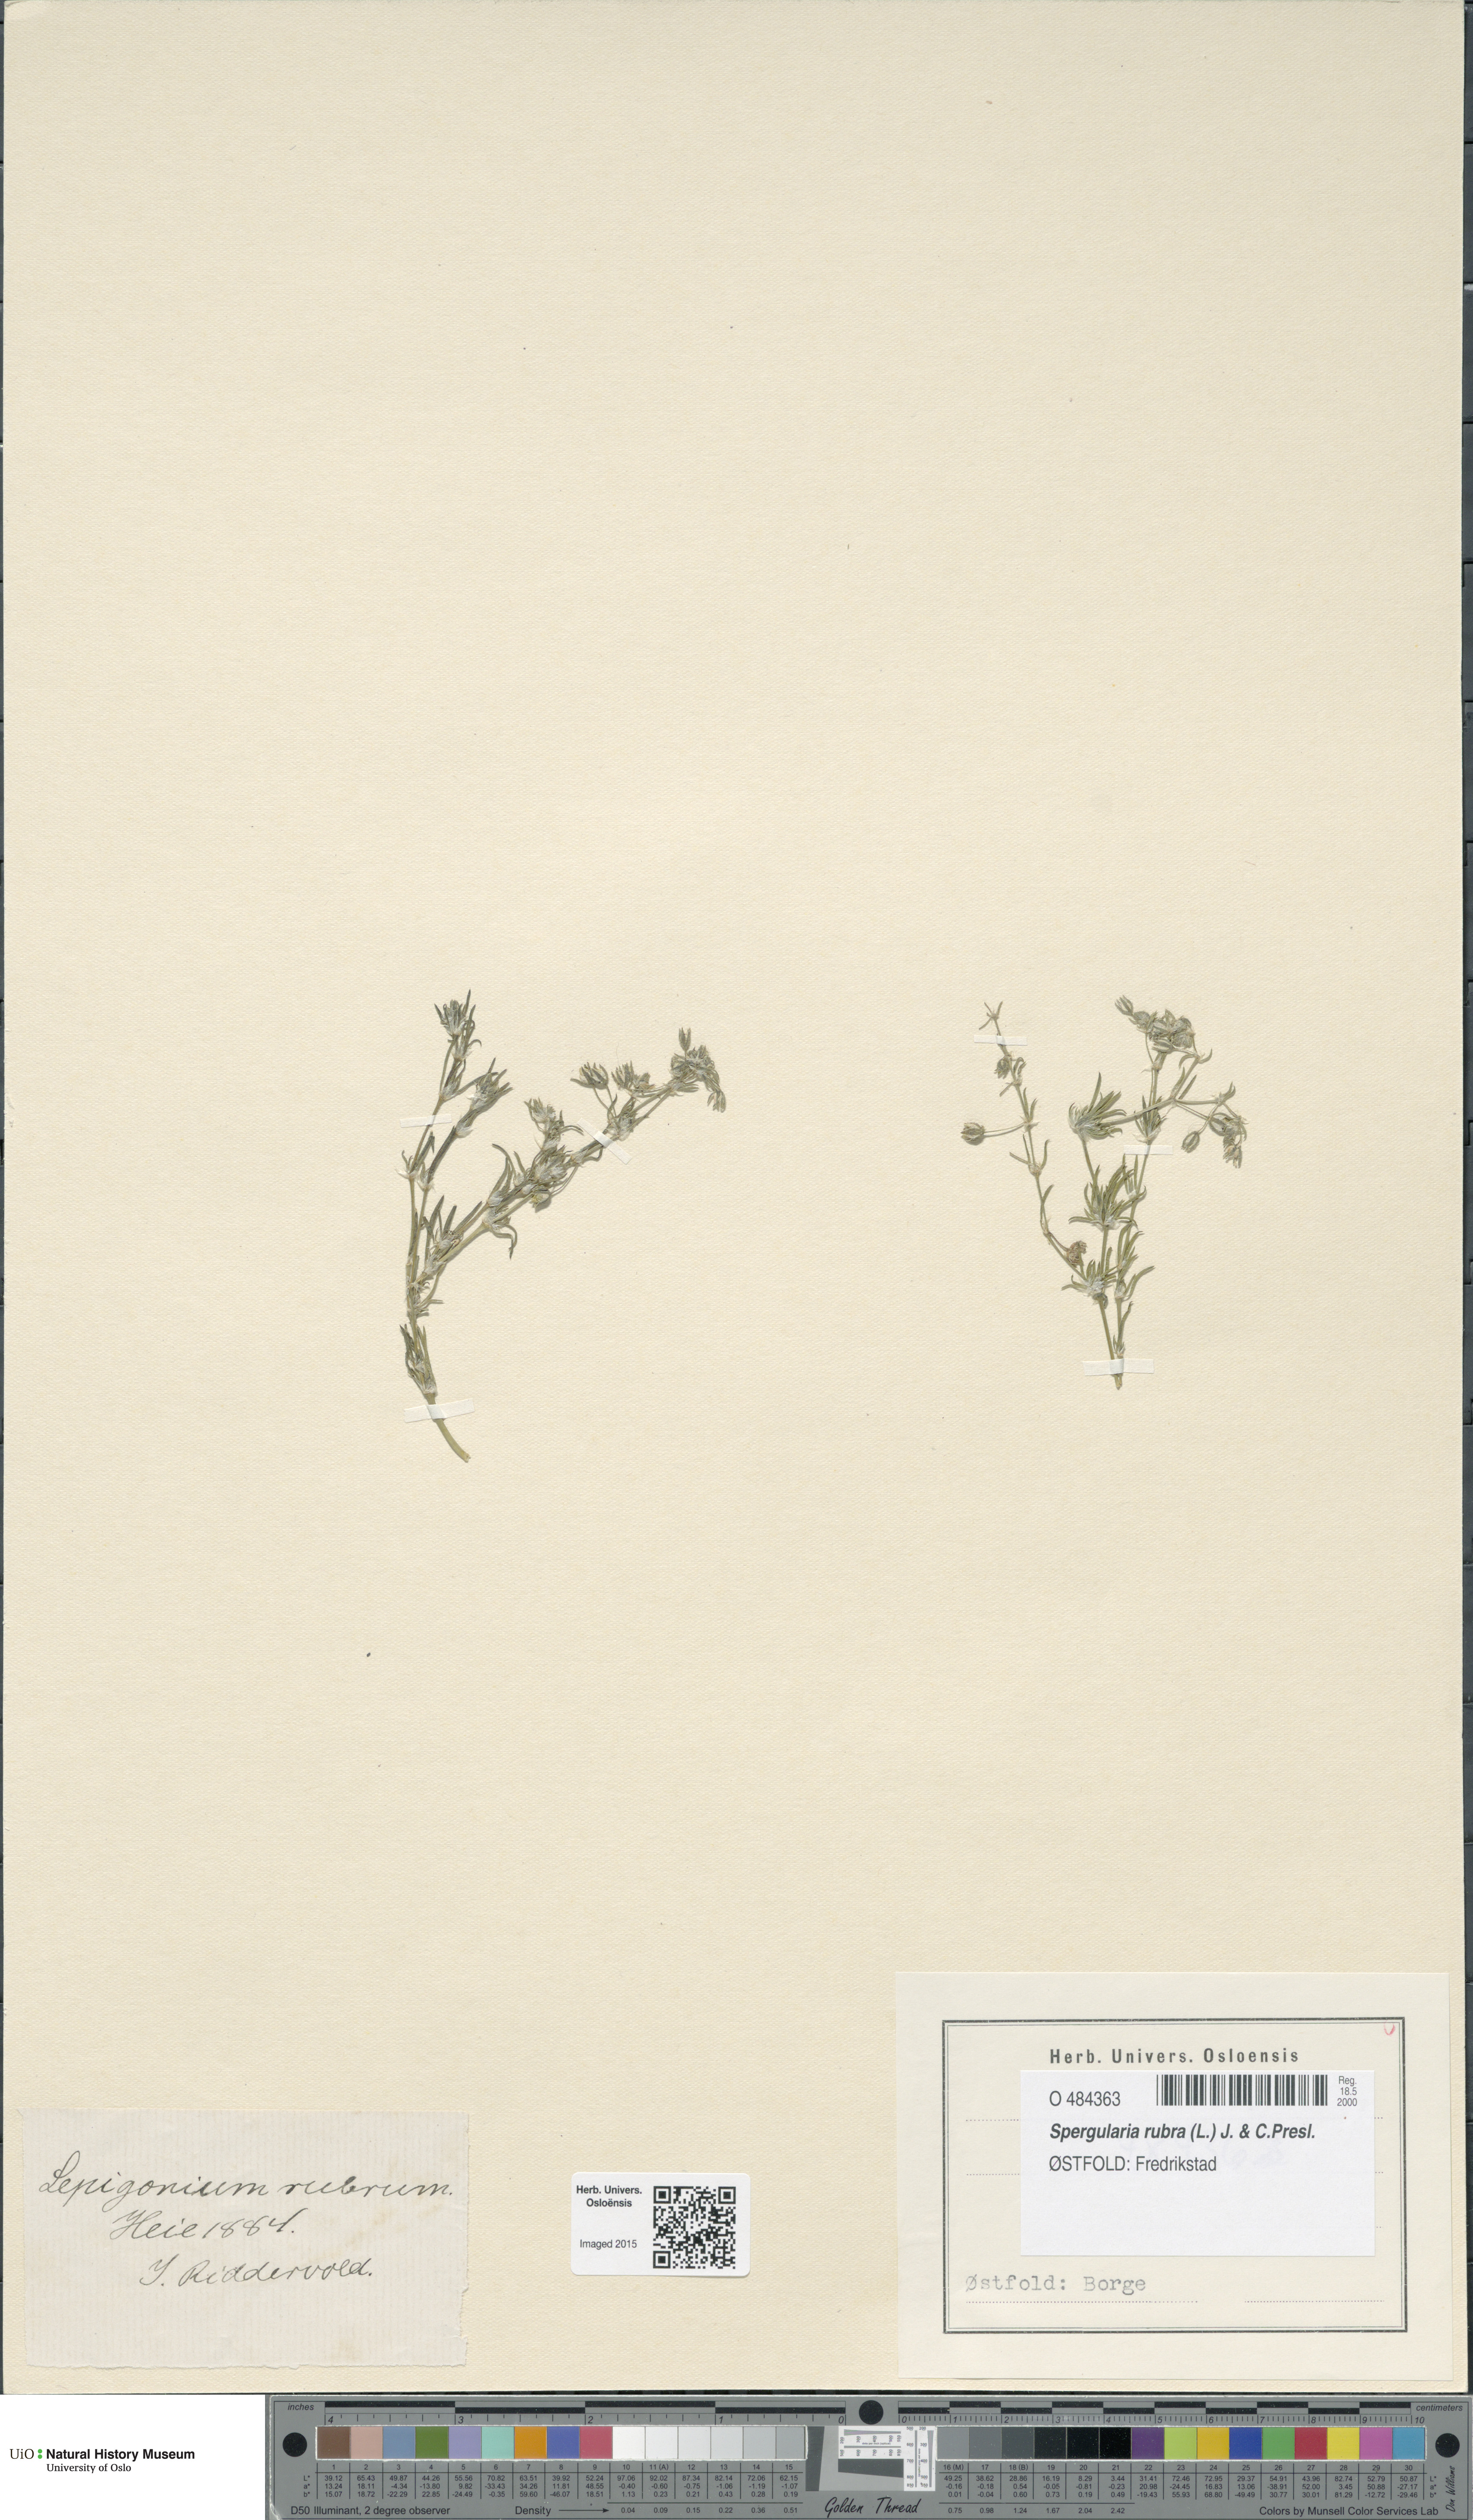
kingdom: Plantae
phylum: Tracheophyta
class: Magnoliopsida
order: Caryophyllales
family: Caryophyllaceae
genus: Spergularia
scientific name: Spergularia rubra
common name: Red sand-spurrey
